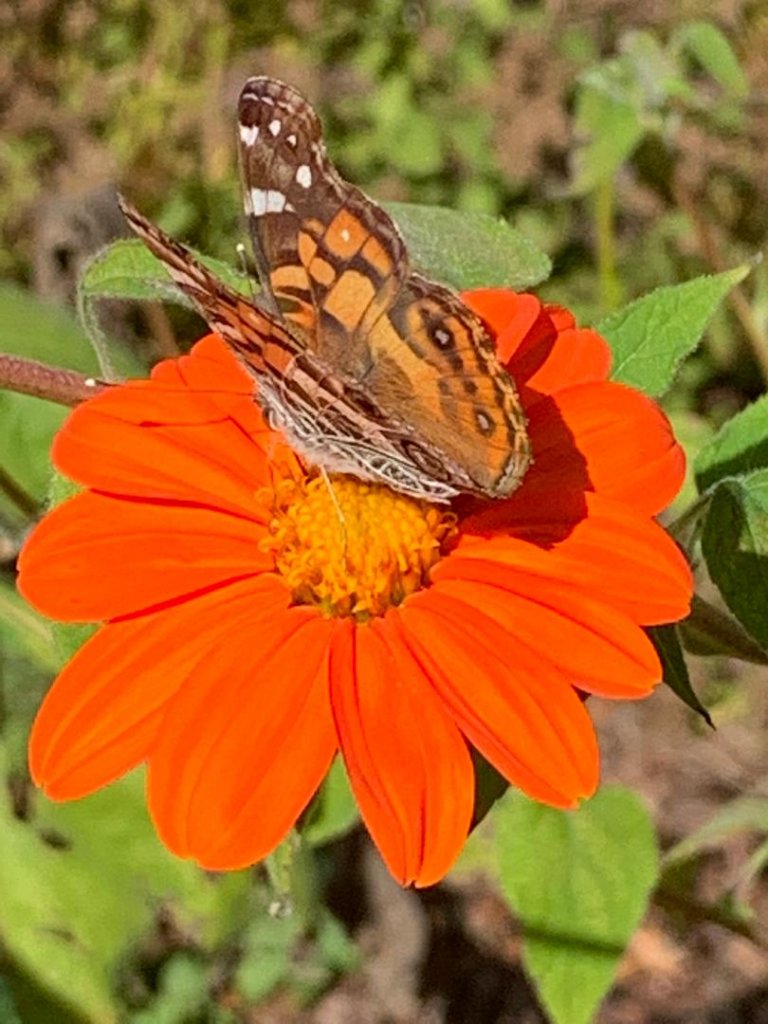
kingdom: Animalia
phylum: Arthropoda
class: Insecta
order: Lepidoptera
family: Nymphalidae
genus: Vanessa
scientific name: Vanessa virginiensis
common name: American Lady
